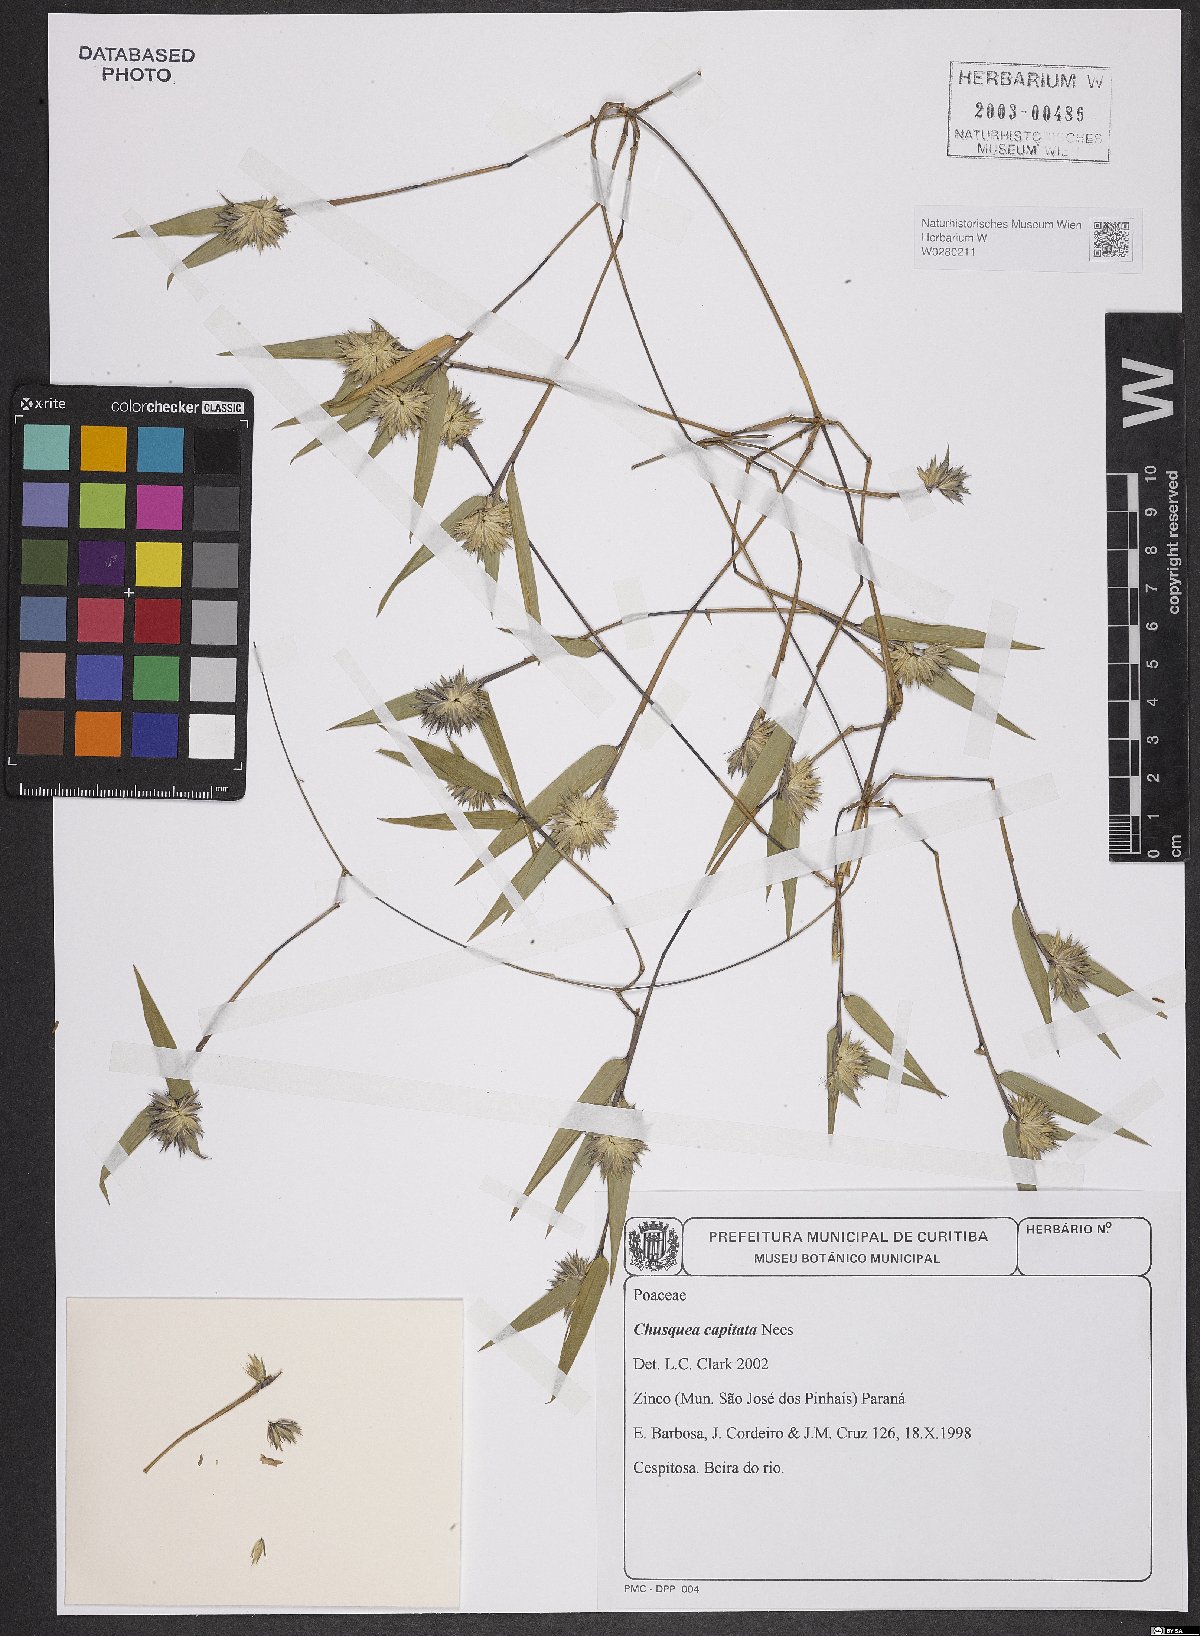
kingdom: Plantae
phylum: Tracheophyta
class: Liliopsida
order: Poales
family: Poaceae
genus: Chusquea
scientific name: Chusquea capitata
